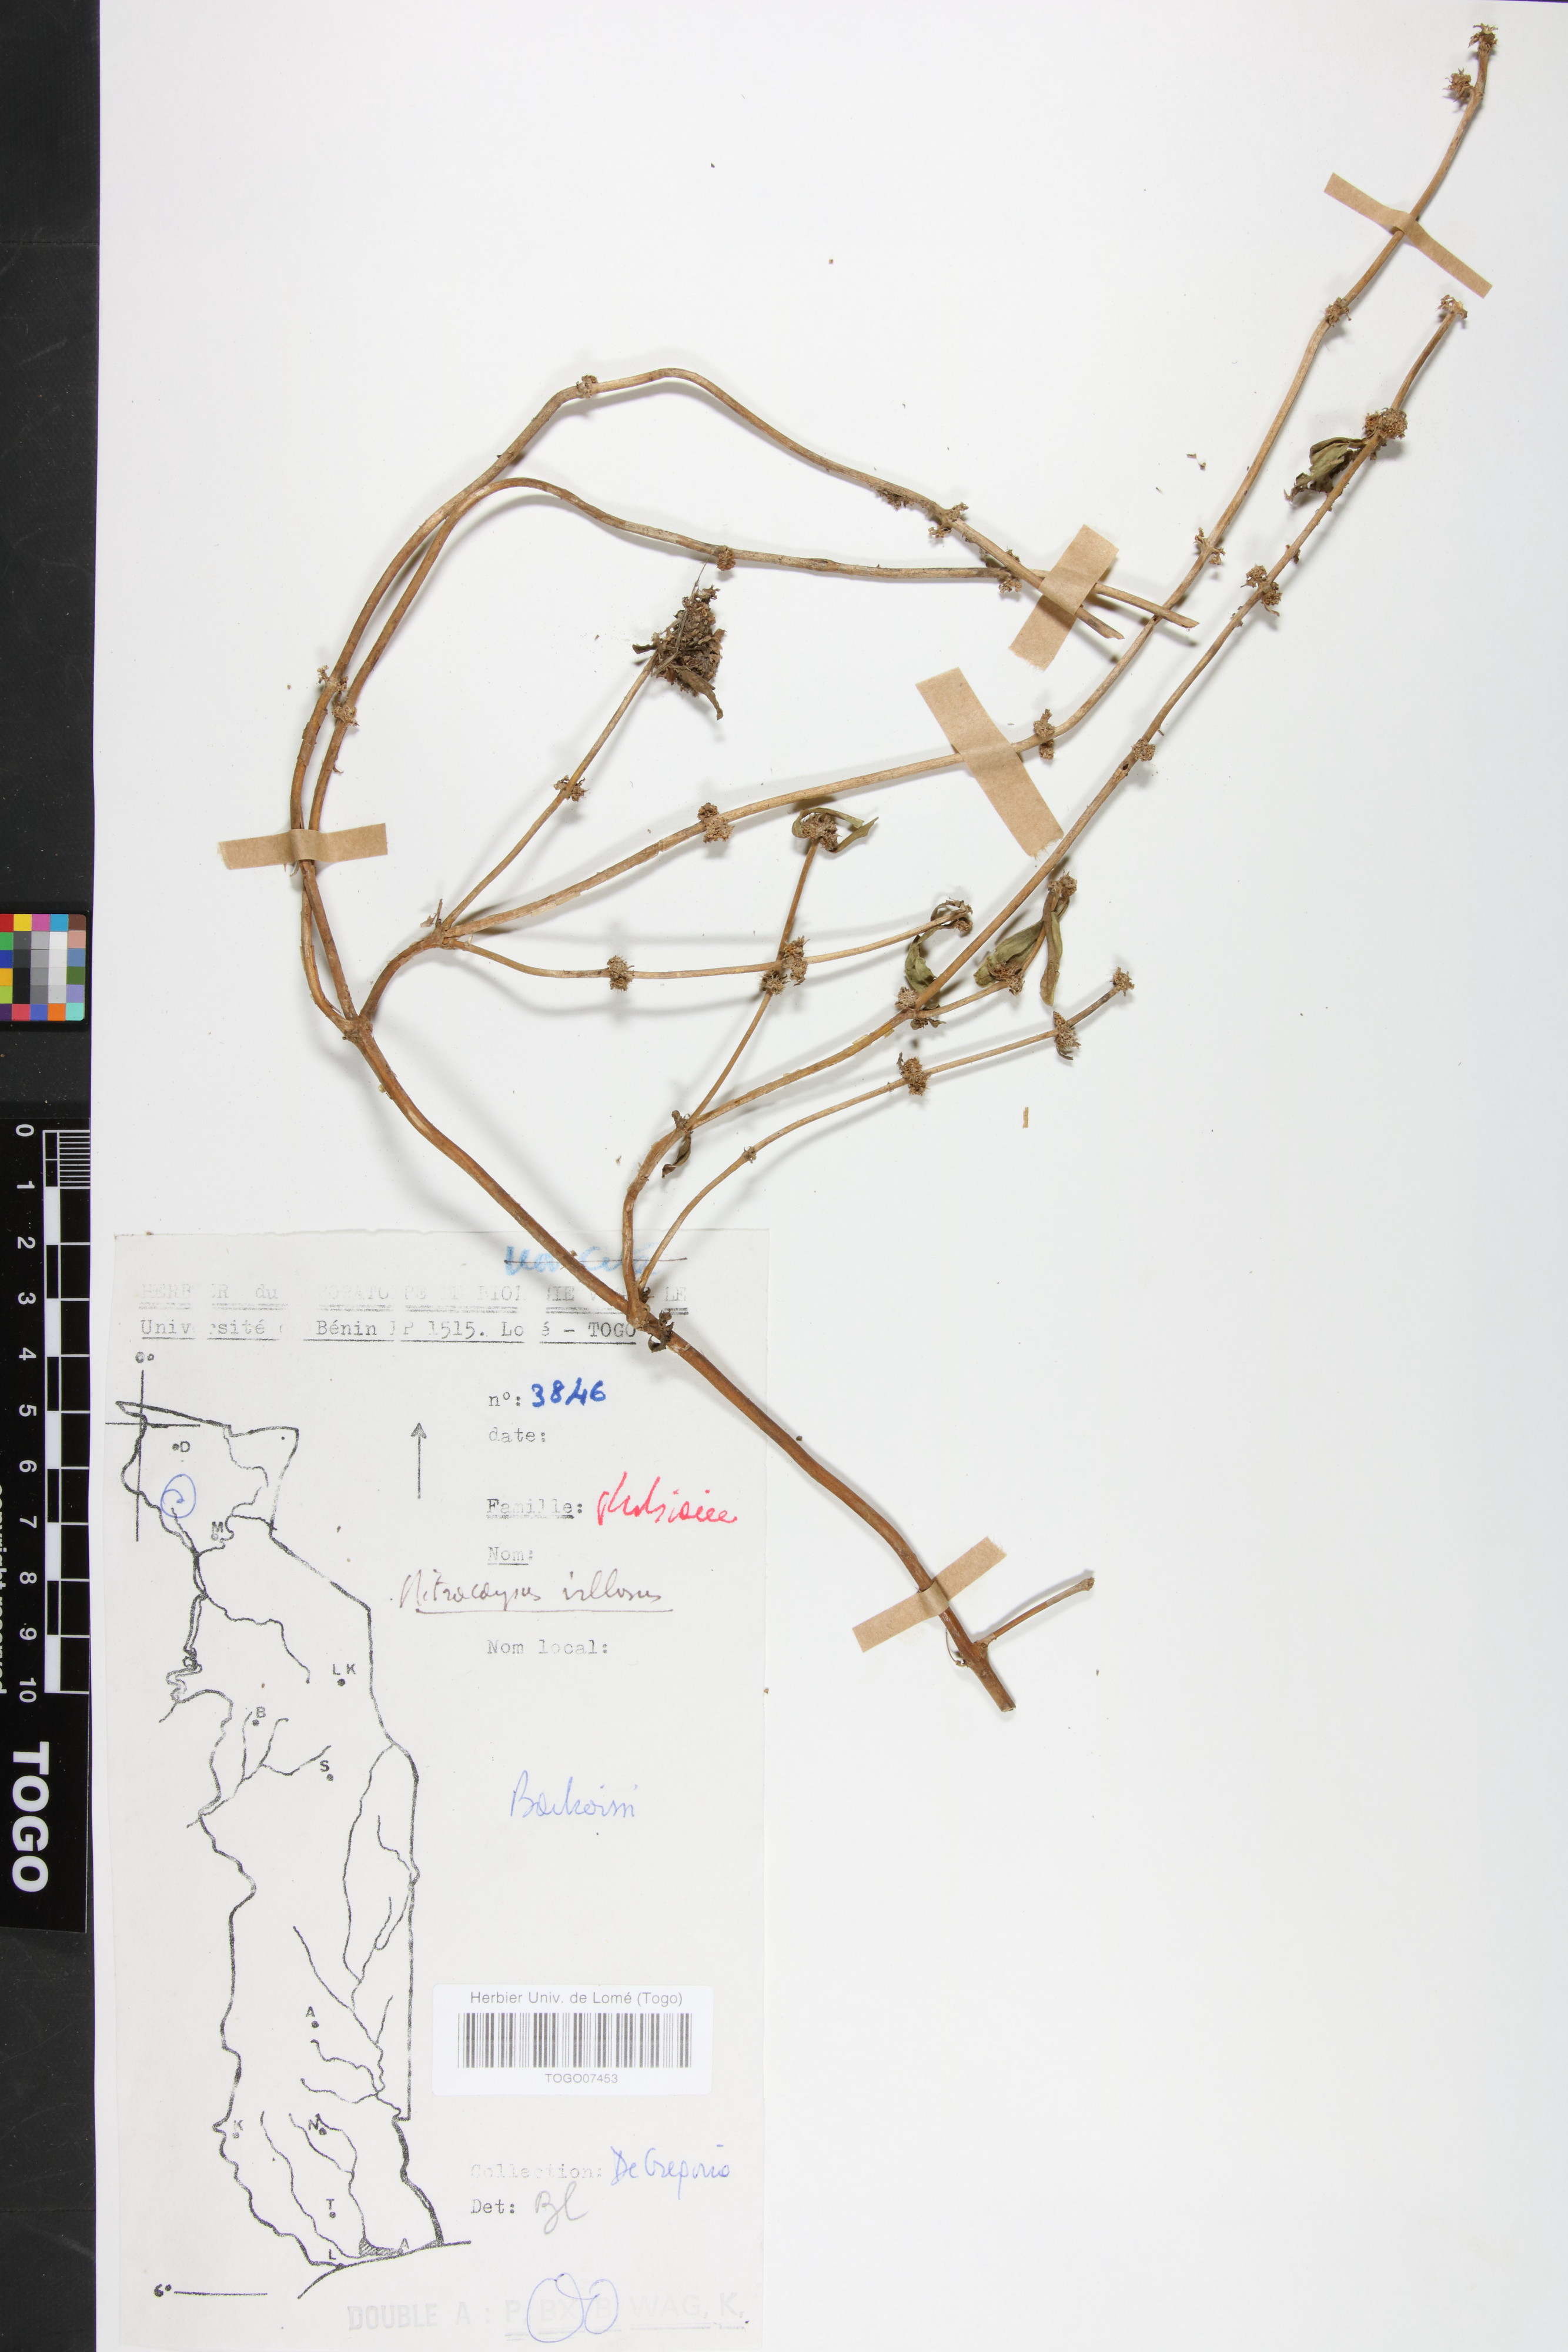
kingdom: Plantae
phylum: Tracheophyta
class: Magnoliopsida
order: Gentianales
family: Rubiaceae
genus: Mitracarpus
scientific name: Mitracarpus hirtus
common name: Tropical girdlepod
